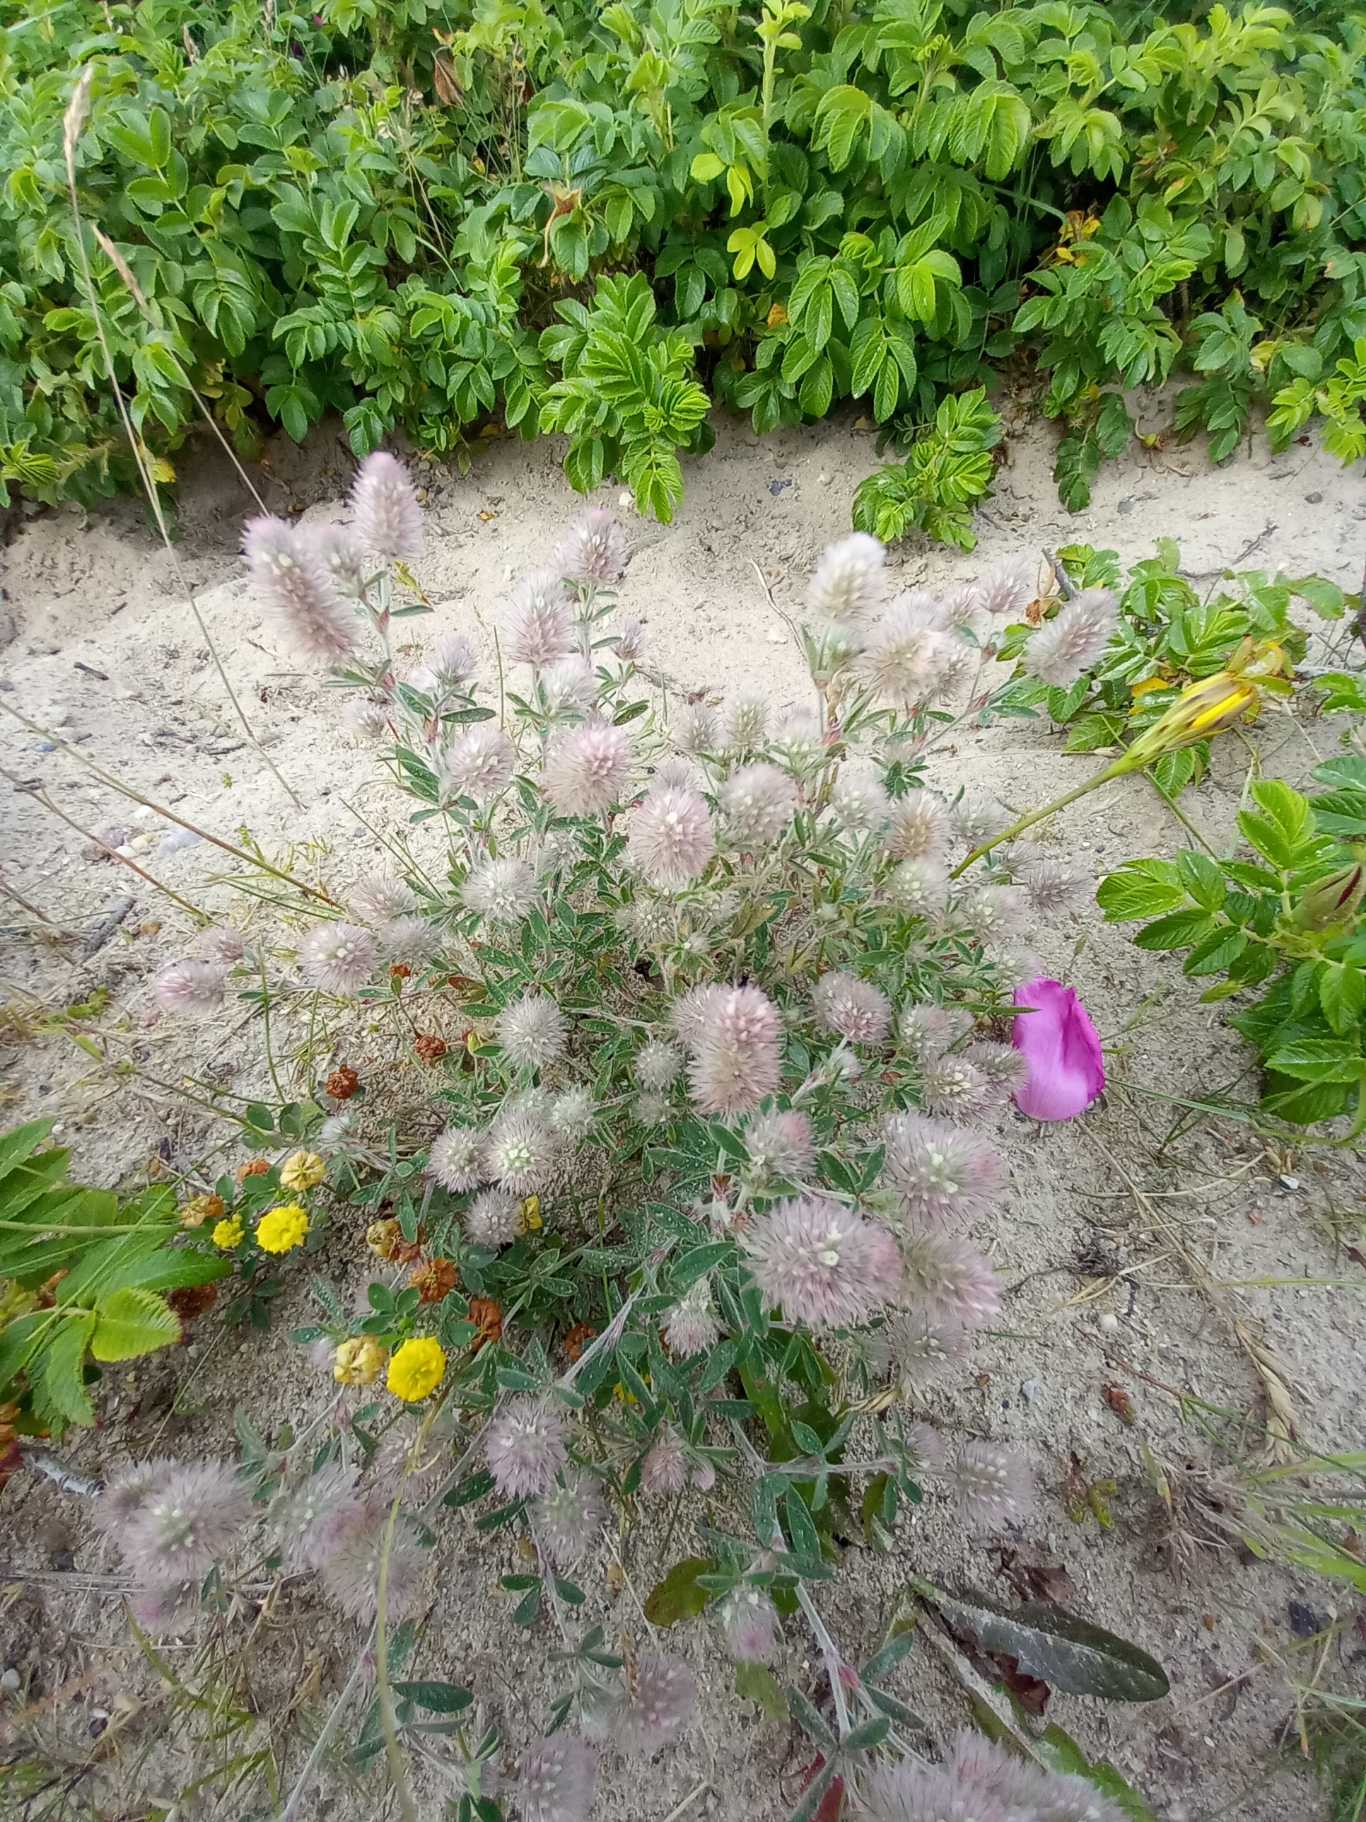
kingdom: Plantae
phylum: Tracheophyta
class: Magnoliopsida
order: Fabales
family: Fabaceae
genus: Trifolium
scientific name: Trifolium arvense
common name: Hare-kløver
